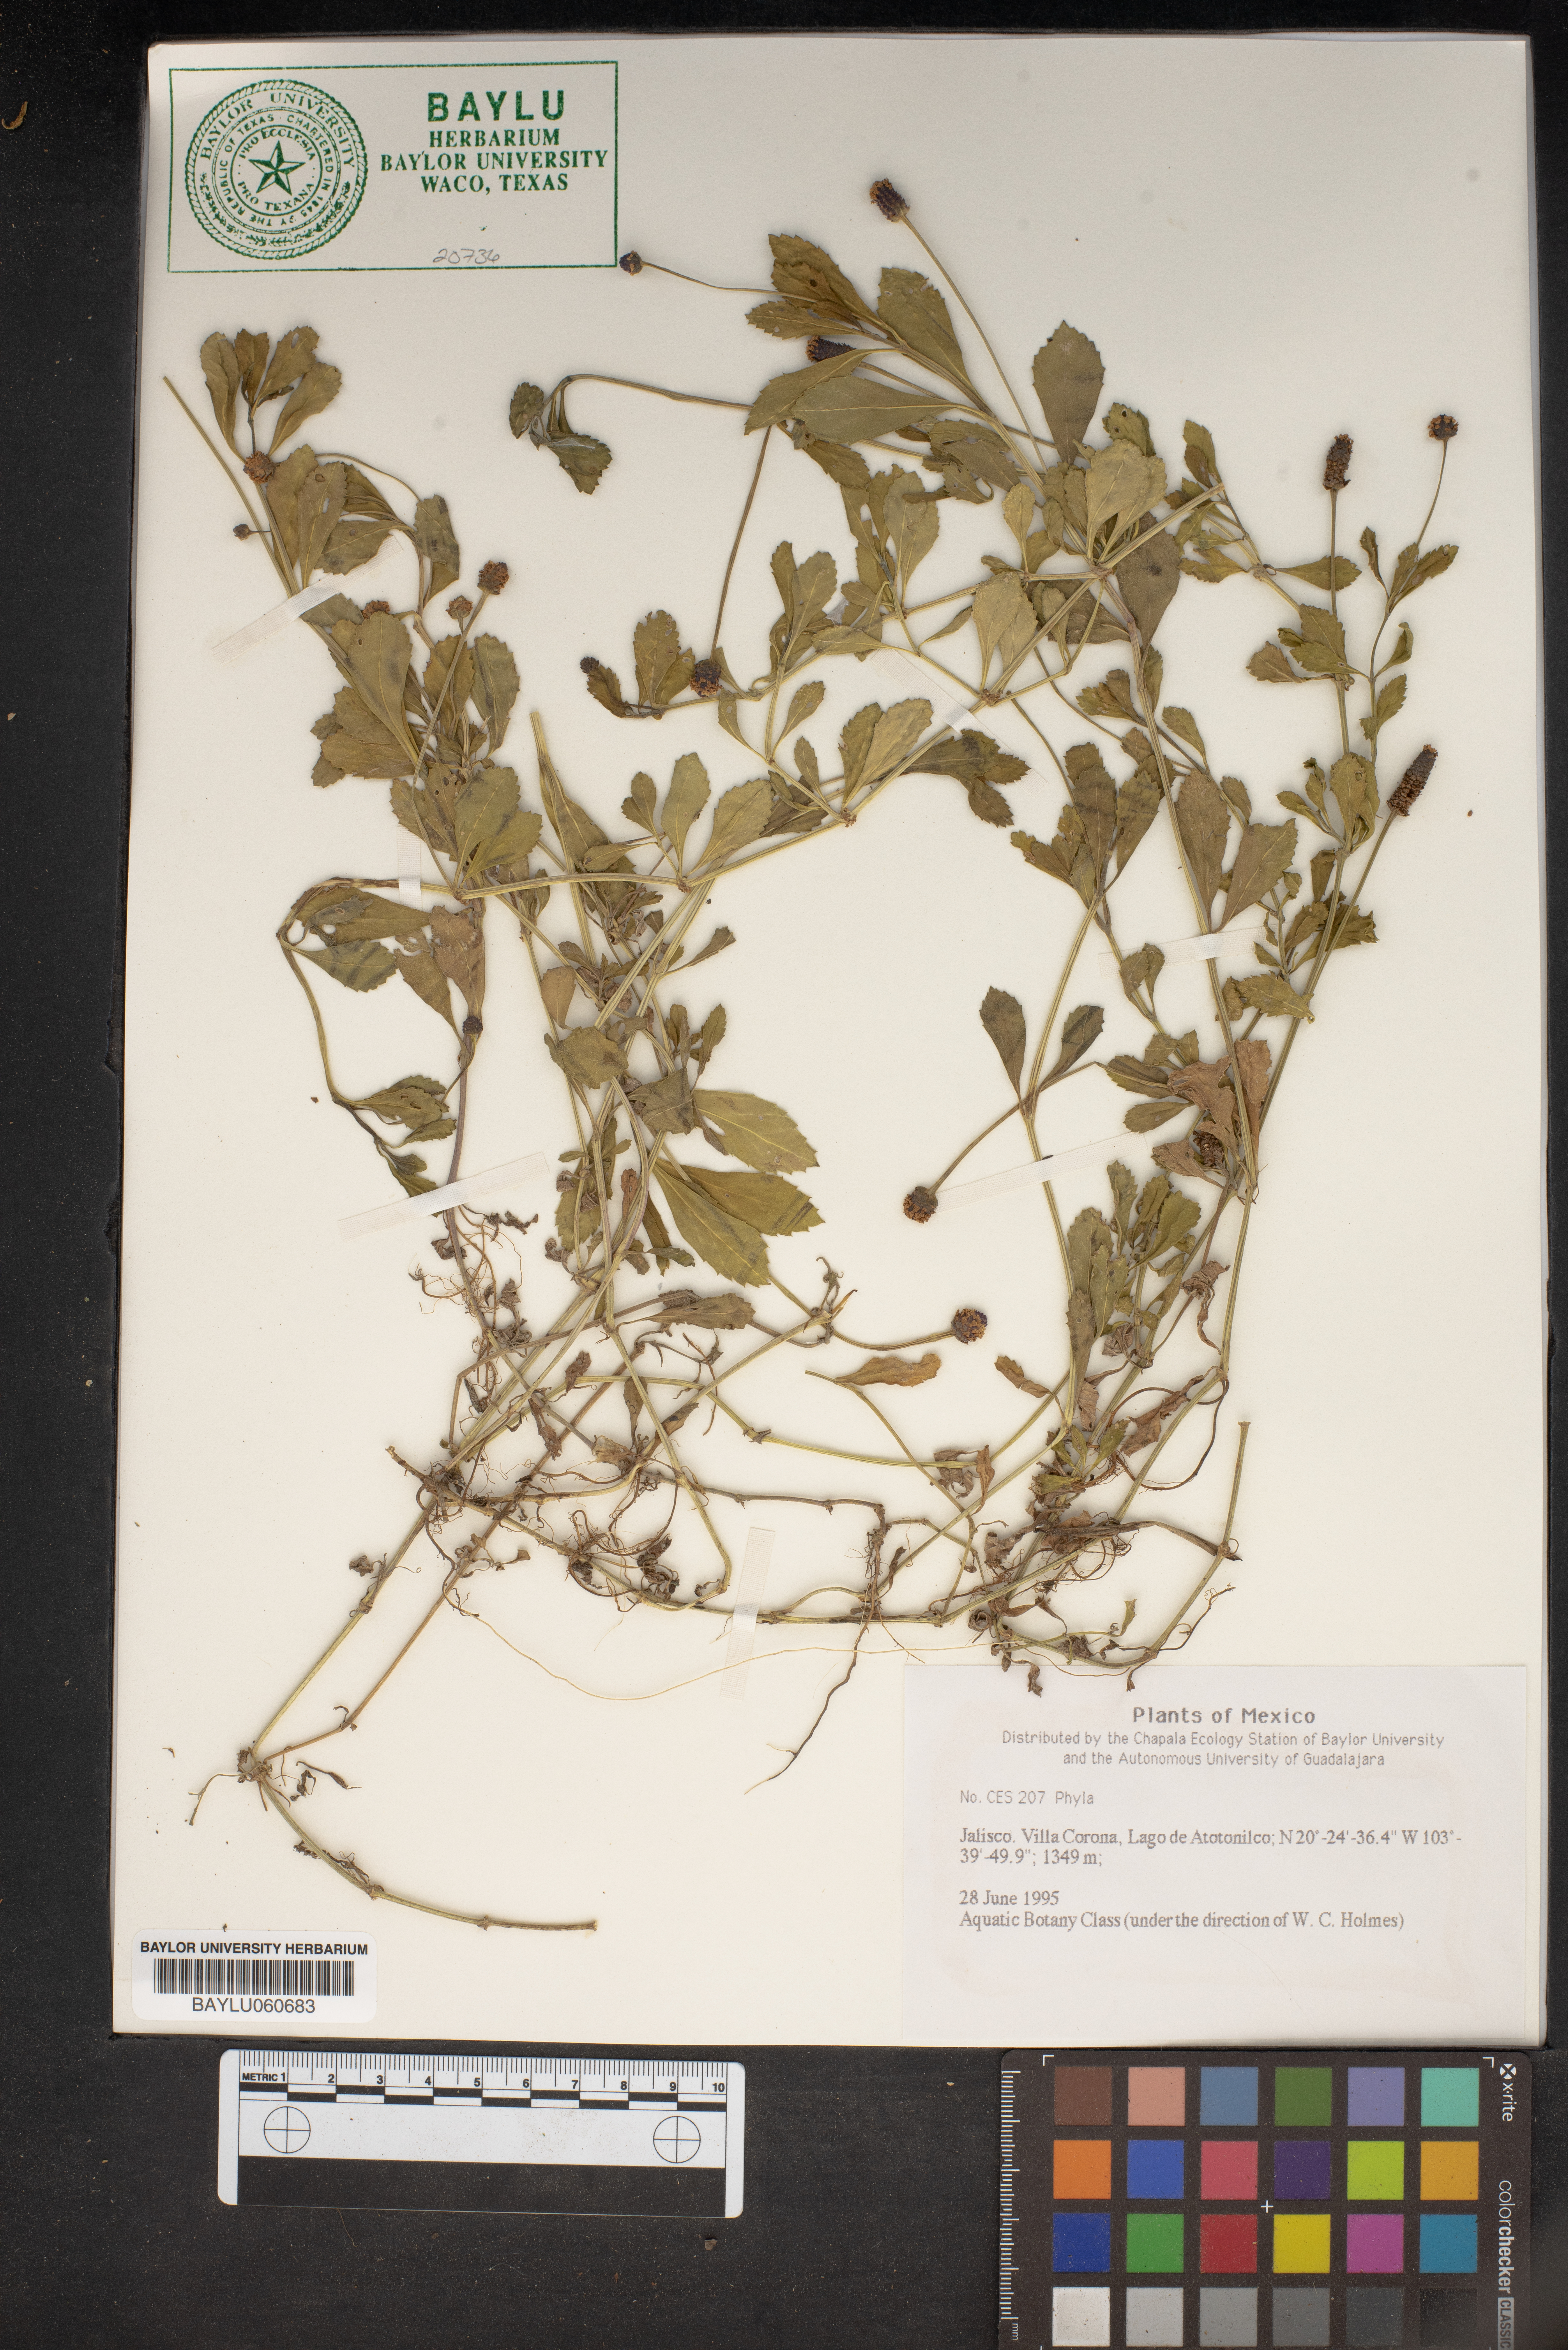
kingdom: Plantae
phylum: Tracheophyta
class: Magnoliopsida
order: Lamiales
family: Verbenaceae
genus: Phyla
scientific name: Phyla
